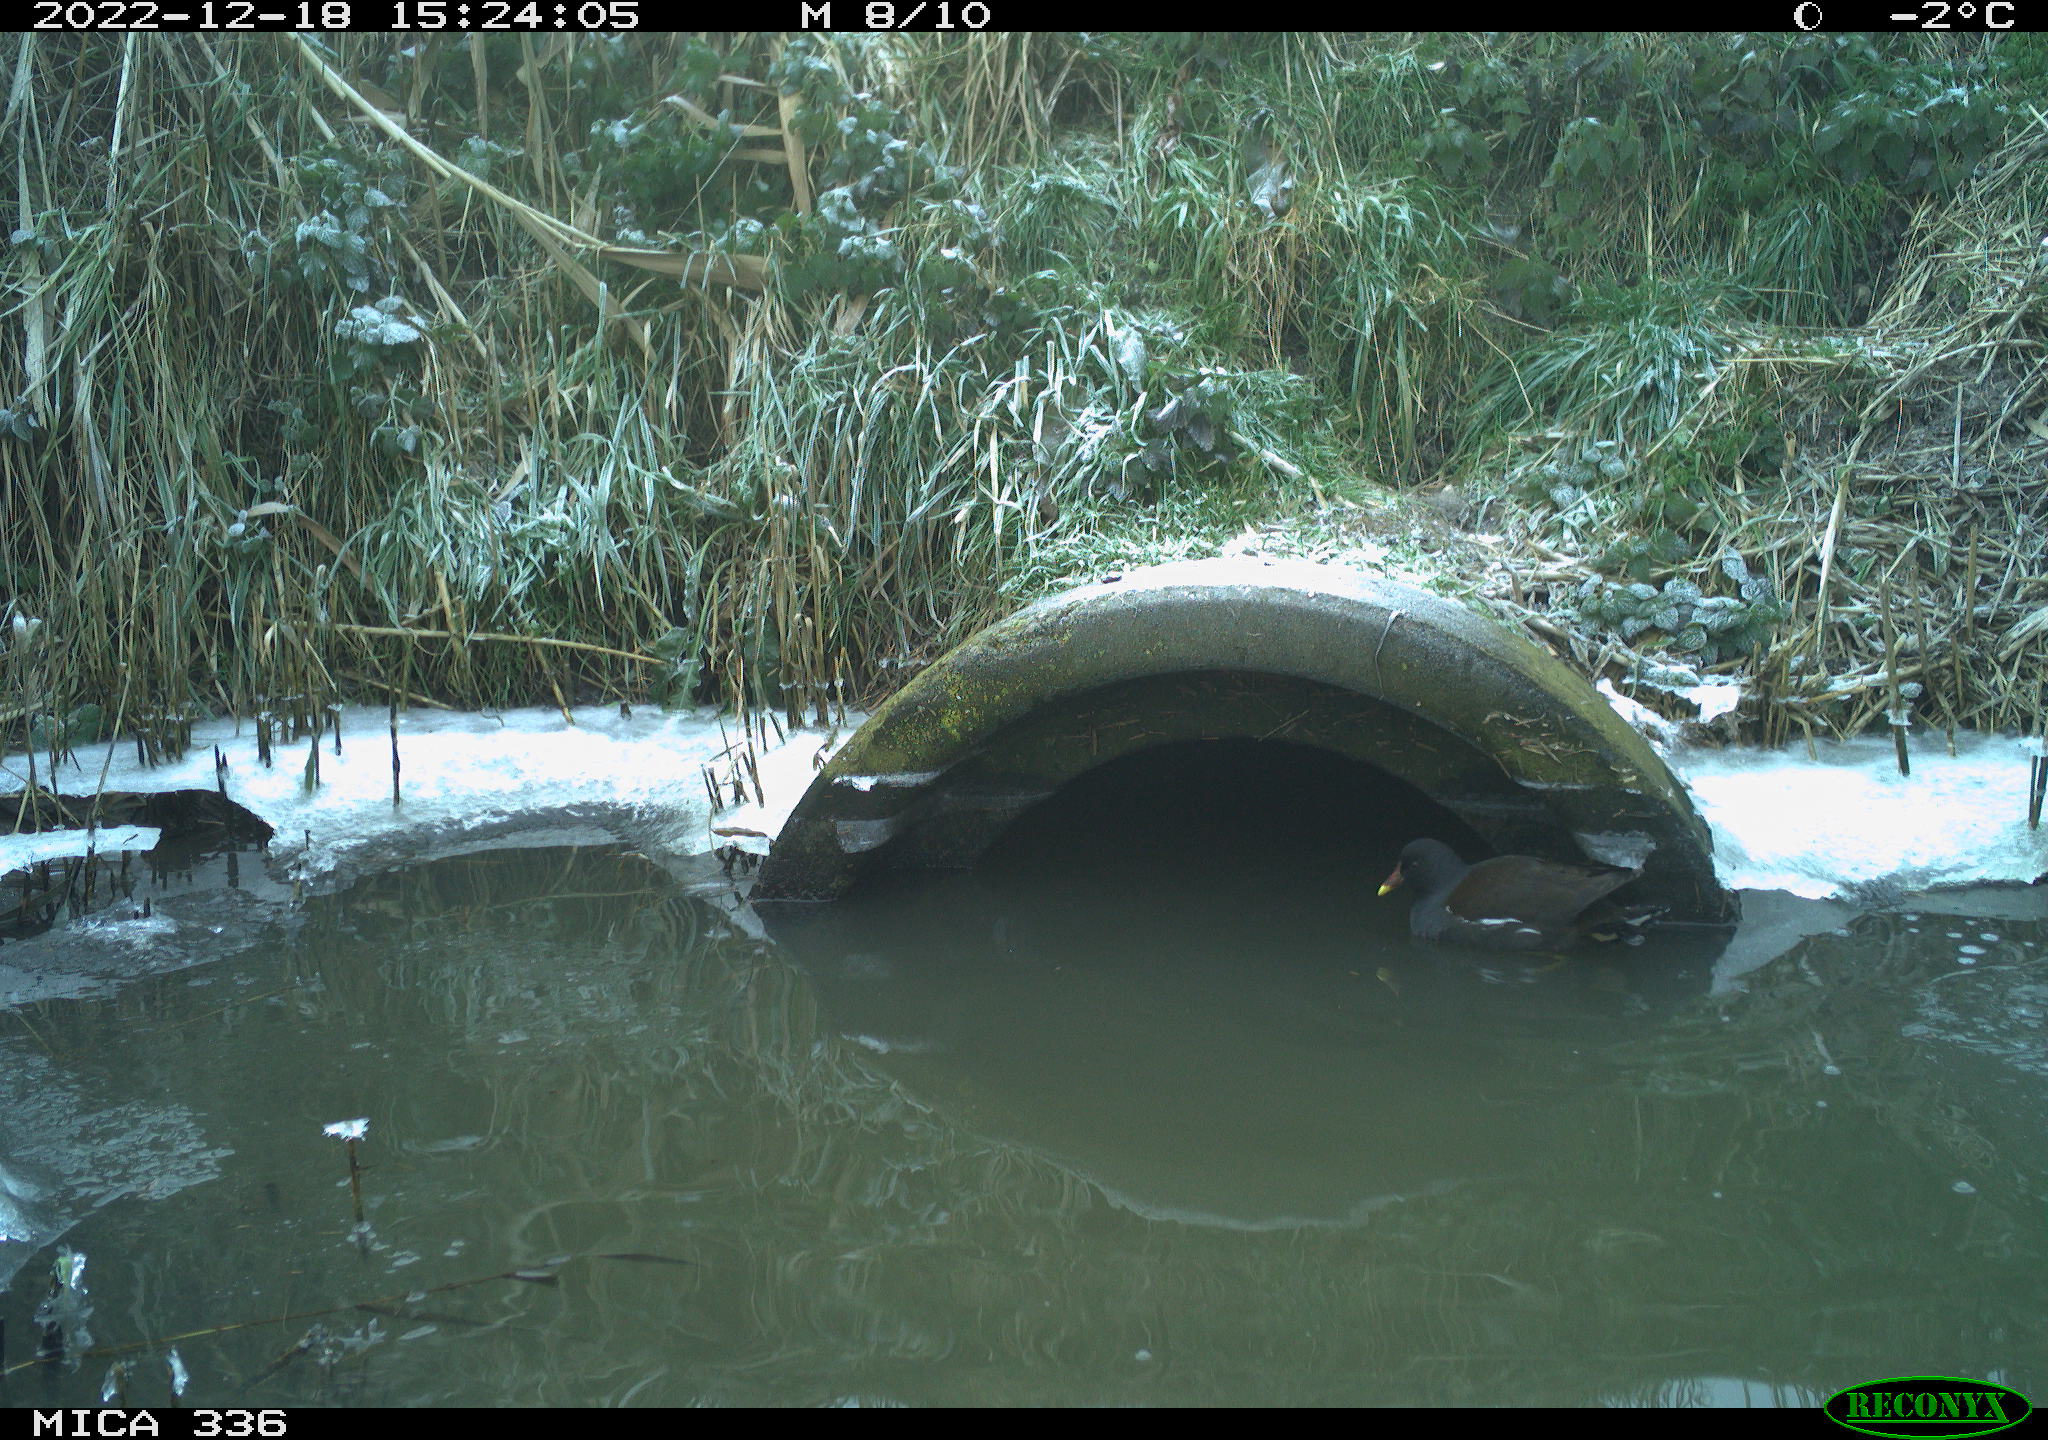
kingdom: Animalia
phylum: Chordata
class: Aves
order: Gruiformes
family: Rallidae
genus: Gallinula
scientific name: Gallinula chloropus
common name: Common moorhen
